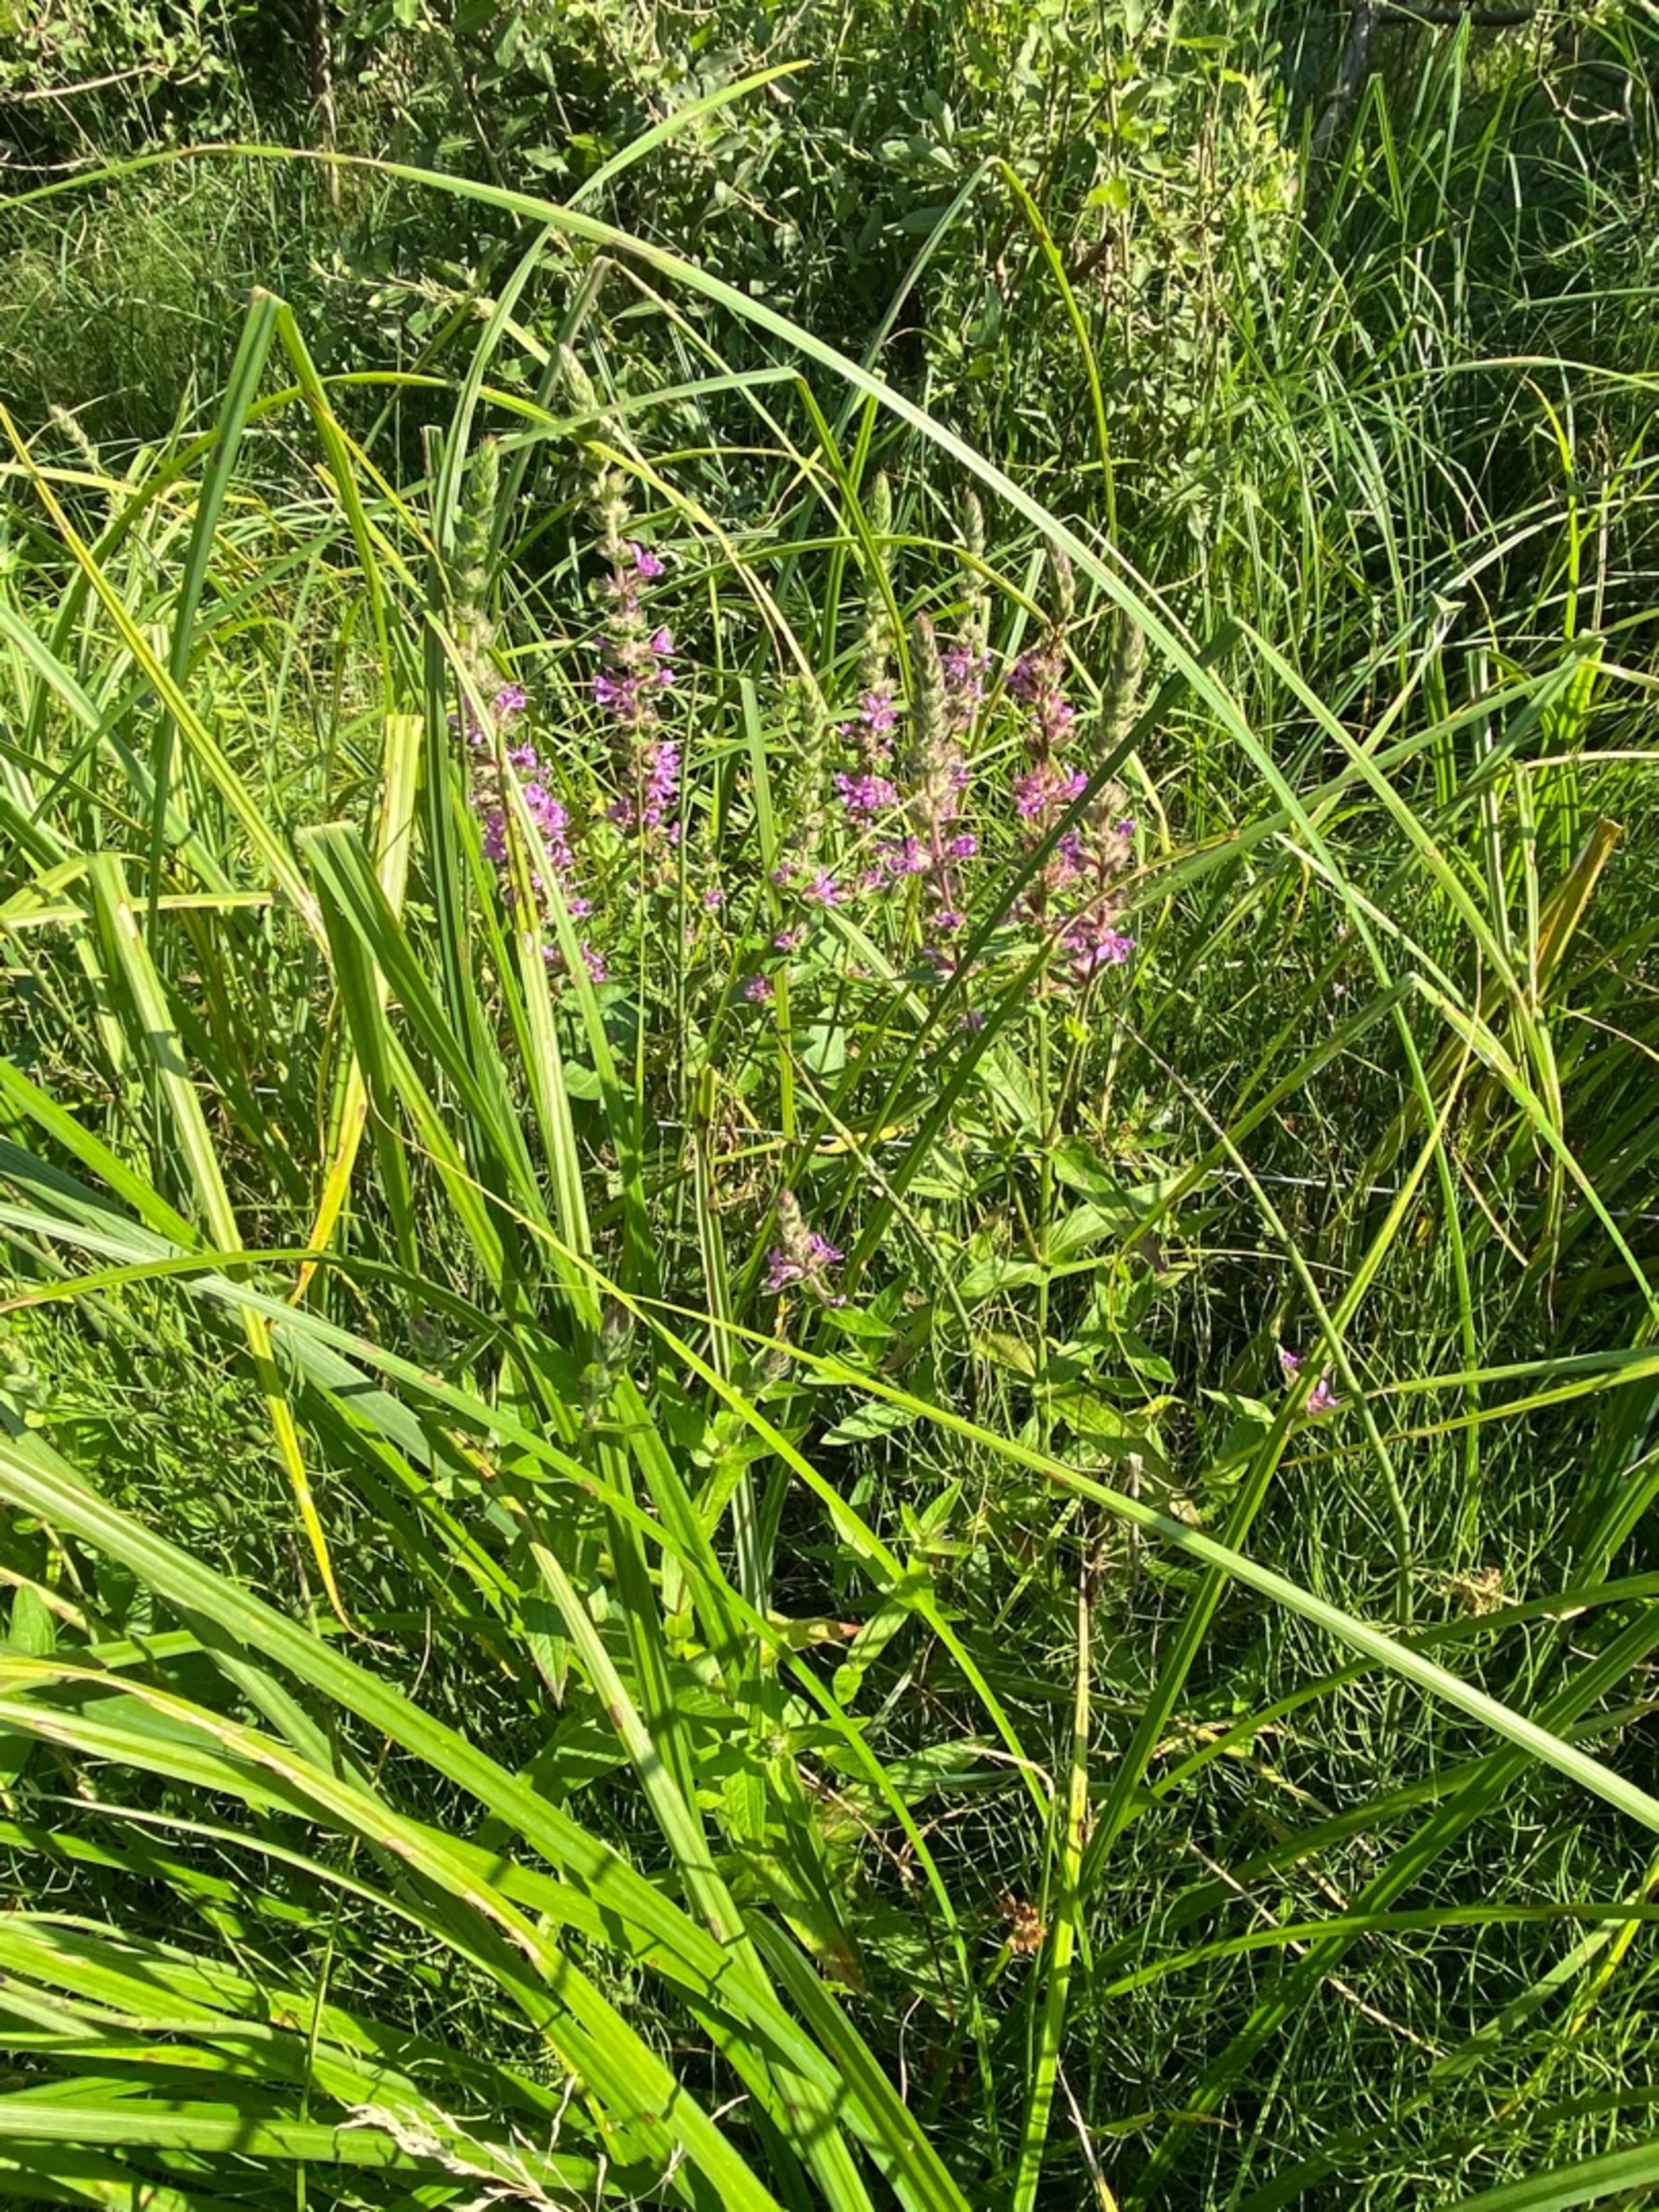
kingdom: Plantae
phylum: Tracheophyta
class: Magnoliopsida
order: Myrtales
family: Lythraceae
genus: Lythrum
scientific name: Lythrum salicaria
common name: Kattehale
